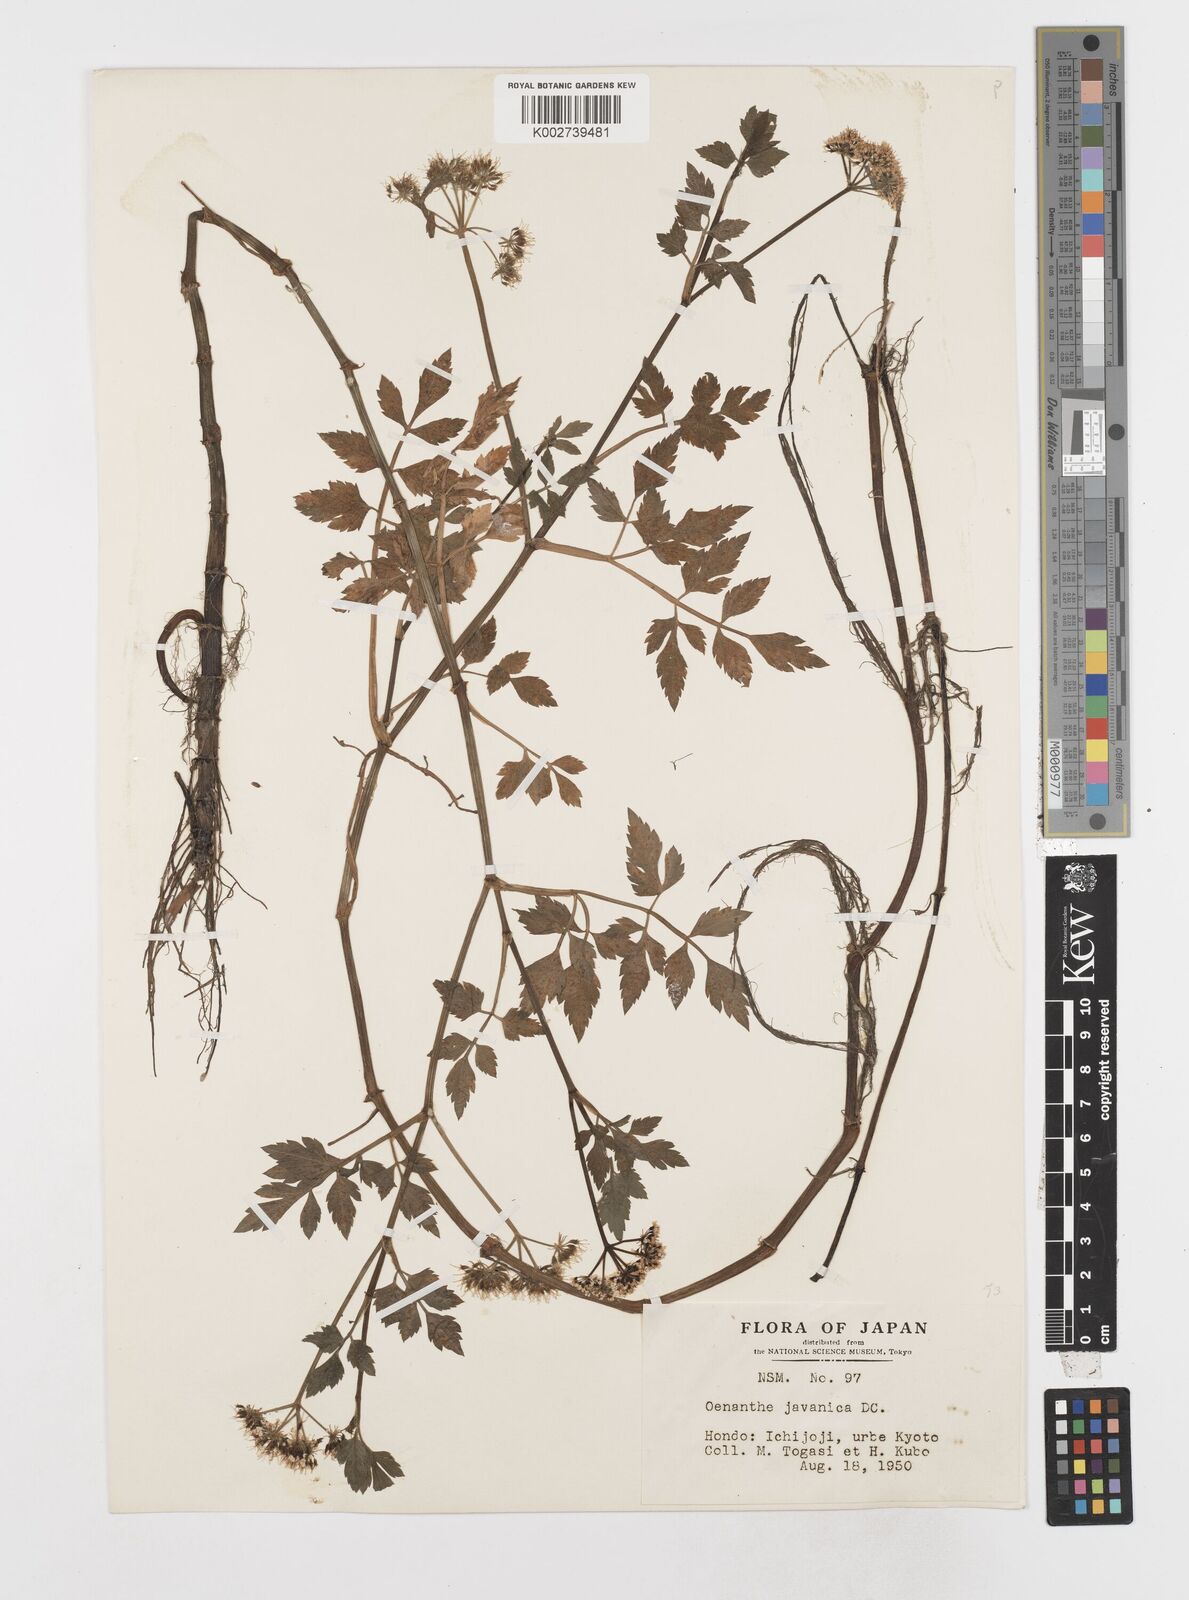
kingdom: Plantae
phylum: Tracheophyta
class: Magnoliopsida
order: Apiales
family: Apiaceae
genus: Oenanthe
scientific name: Oenanthe javanica
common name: Java water-dropwort
